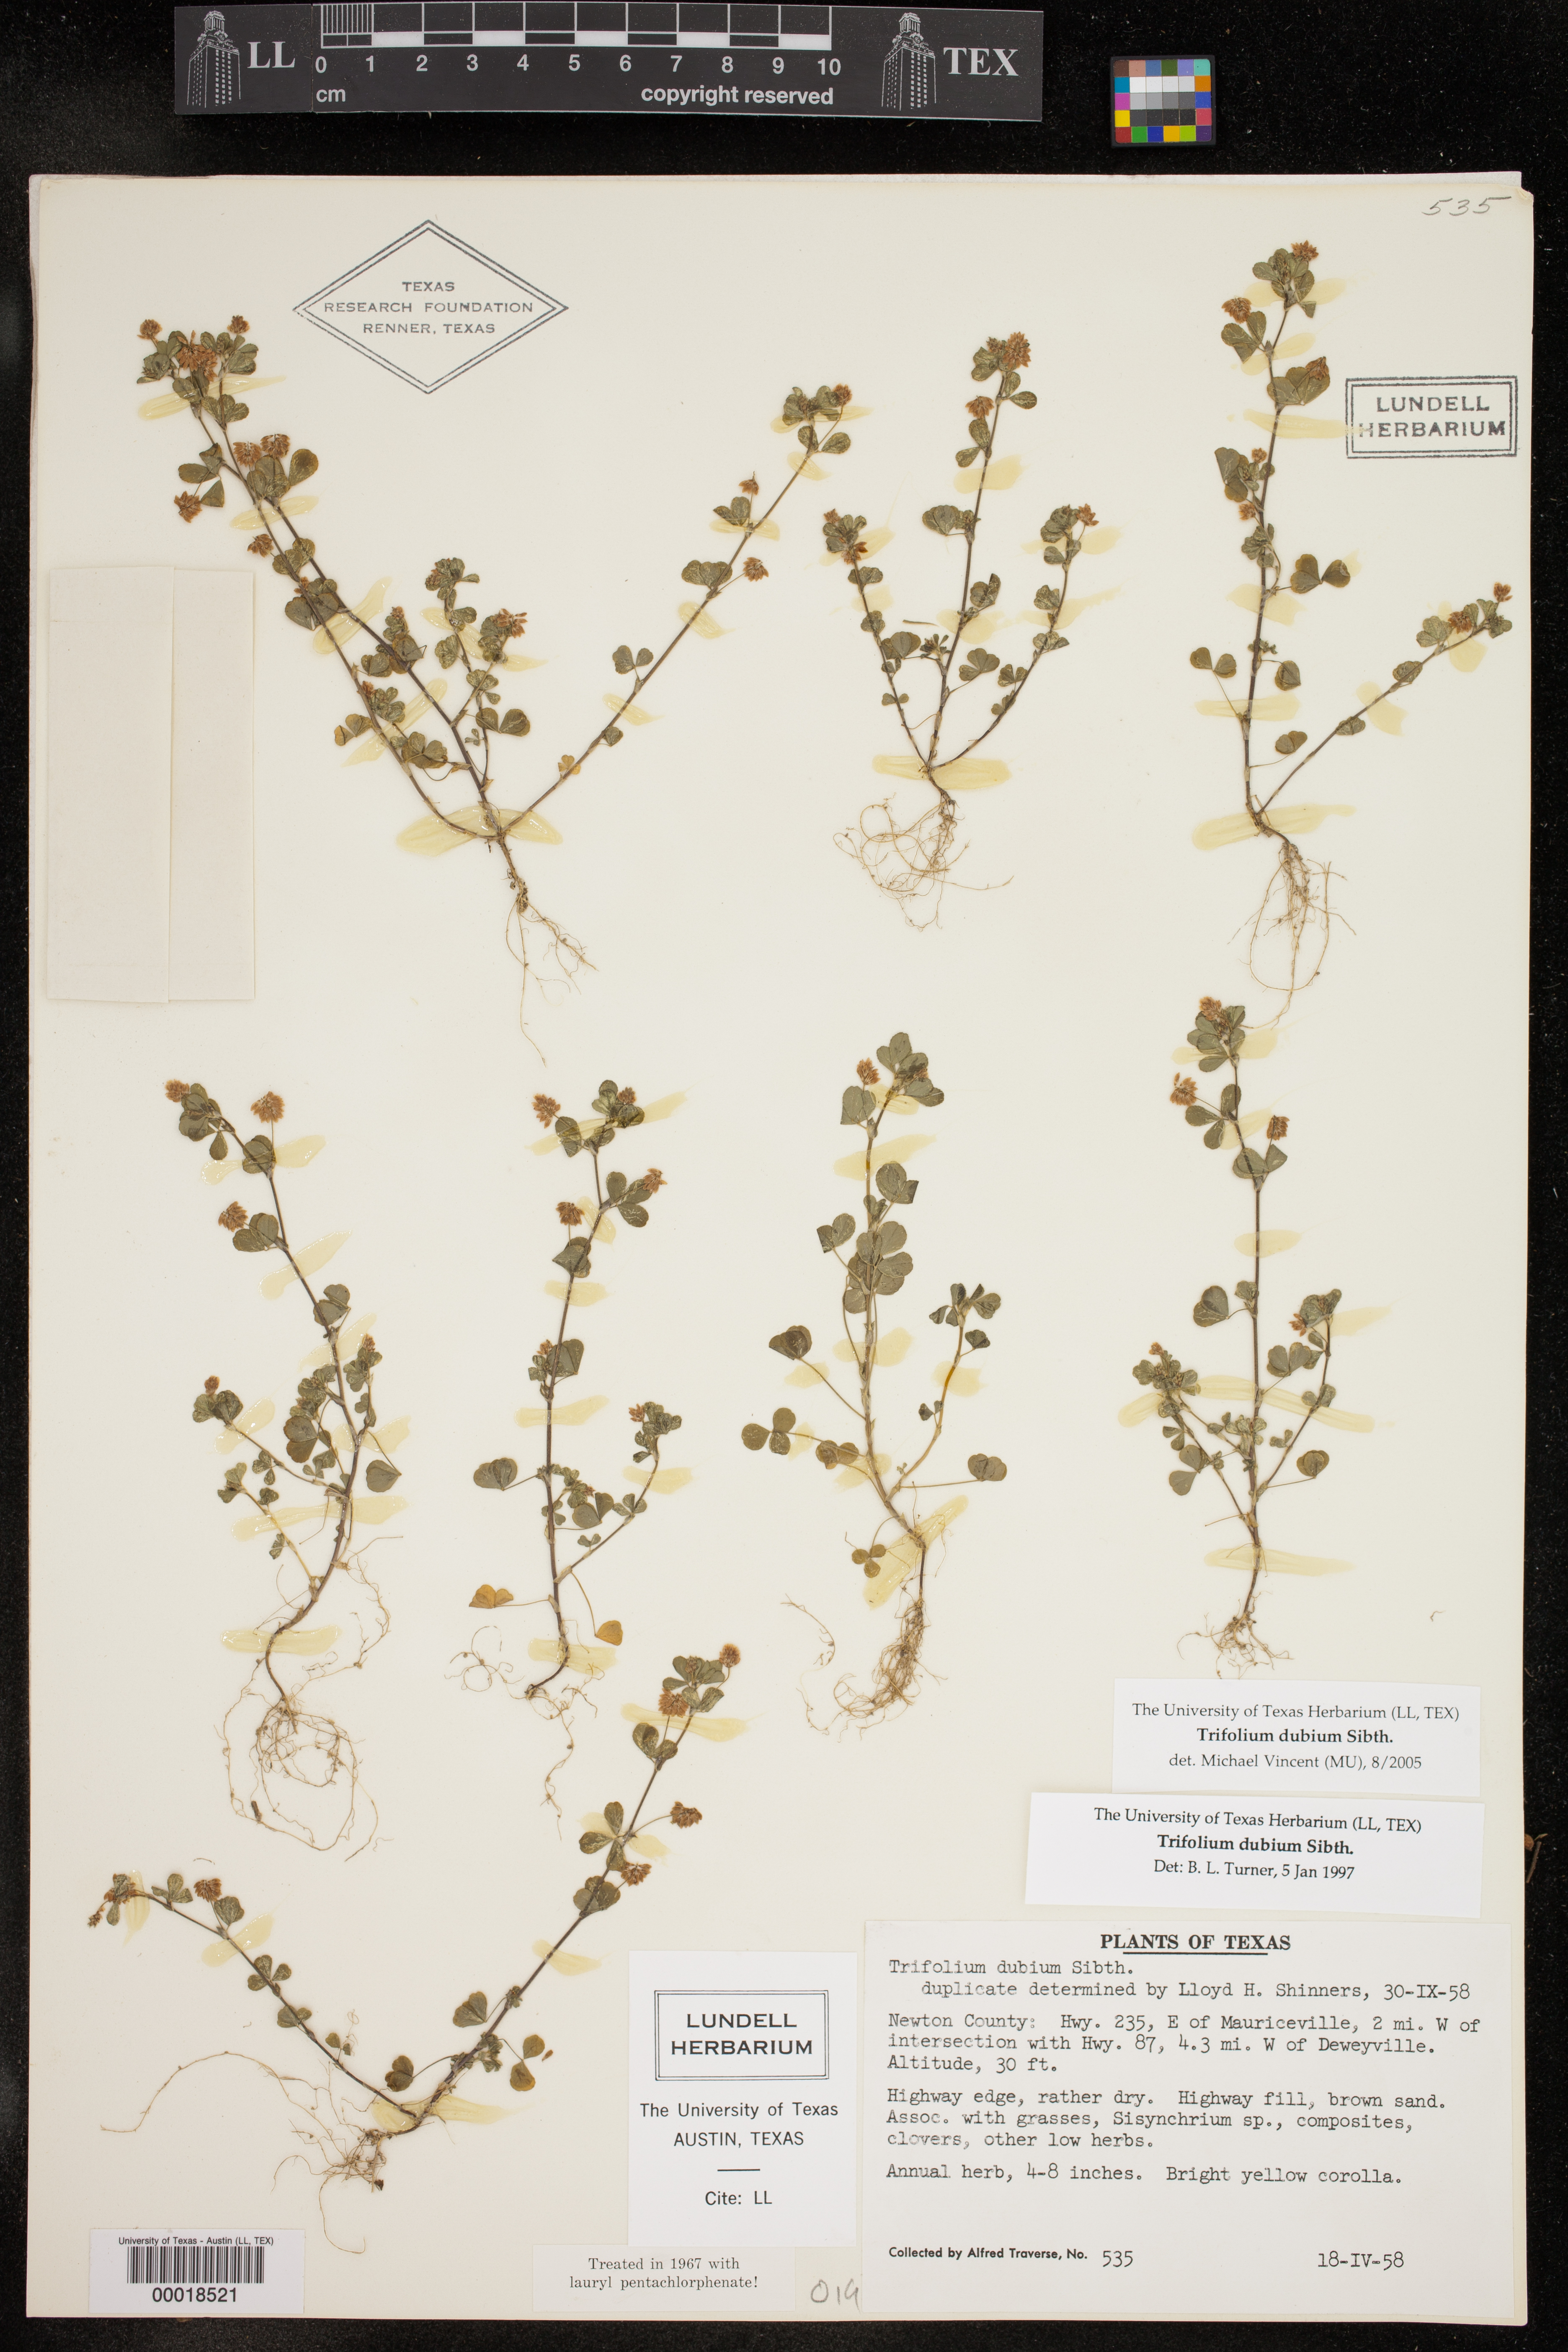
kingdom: Plantae
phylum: Tracheophyta
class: Magnoliopsida
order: Fabales
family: Fabaceae
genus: Trifolium
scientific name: Trifolium dubium
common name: Suckling clover
